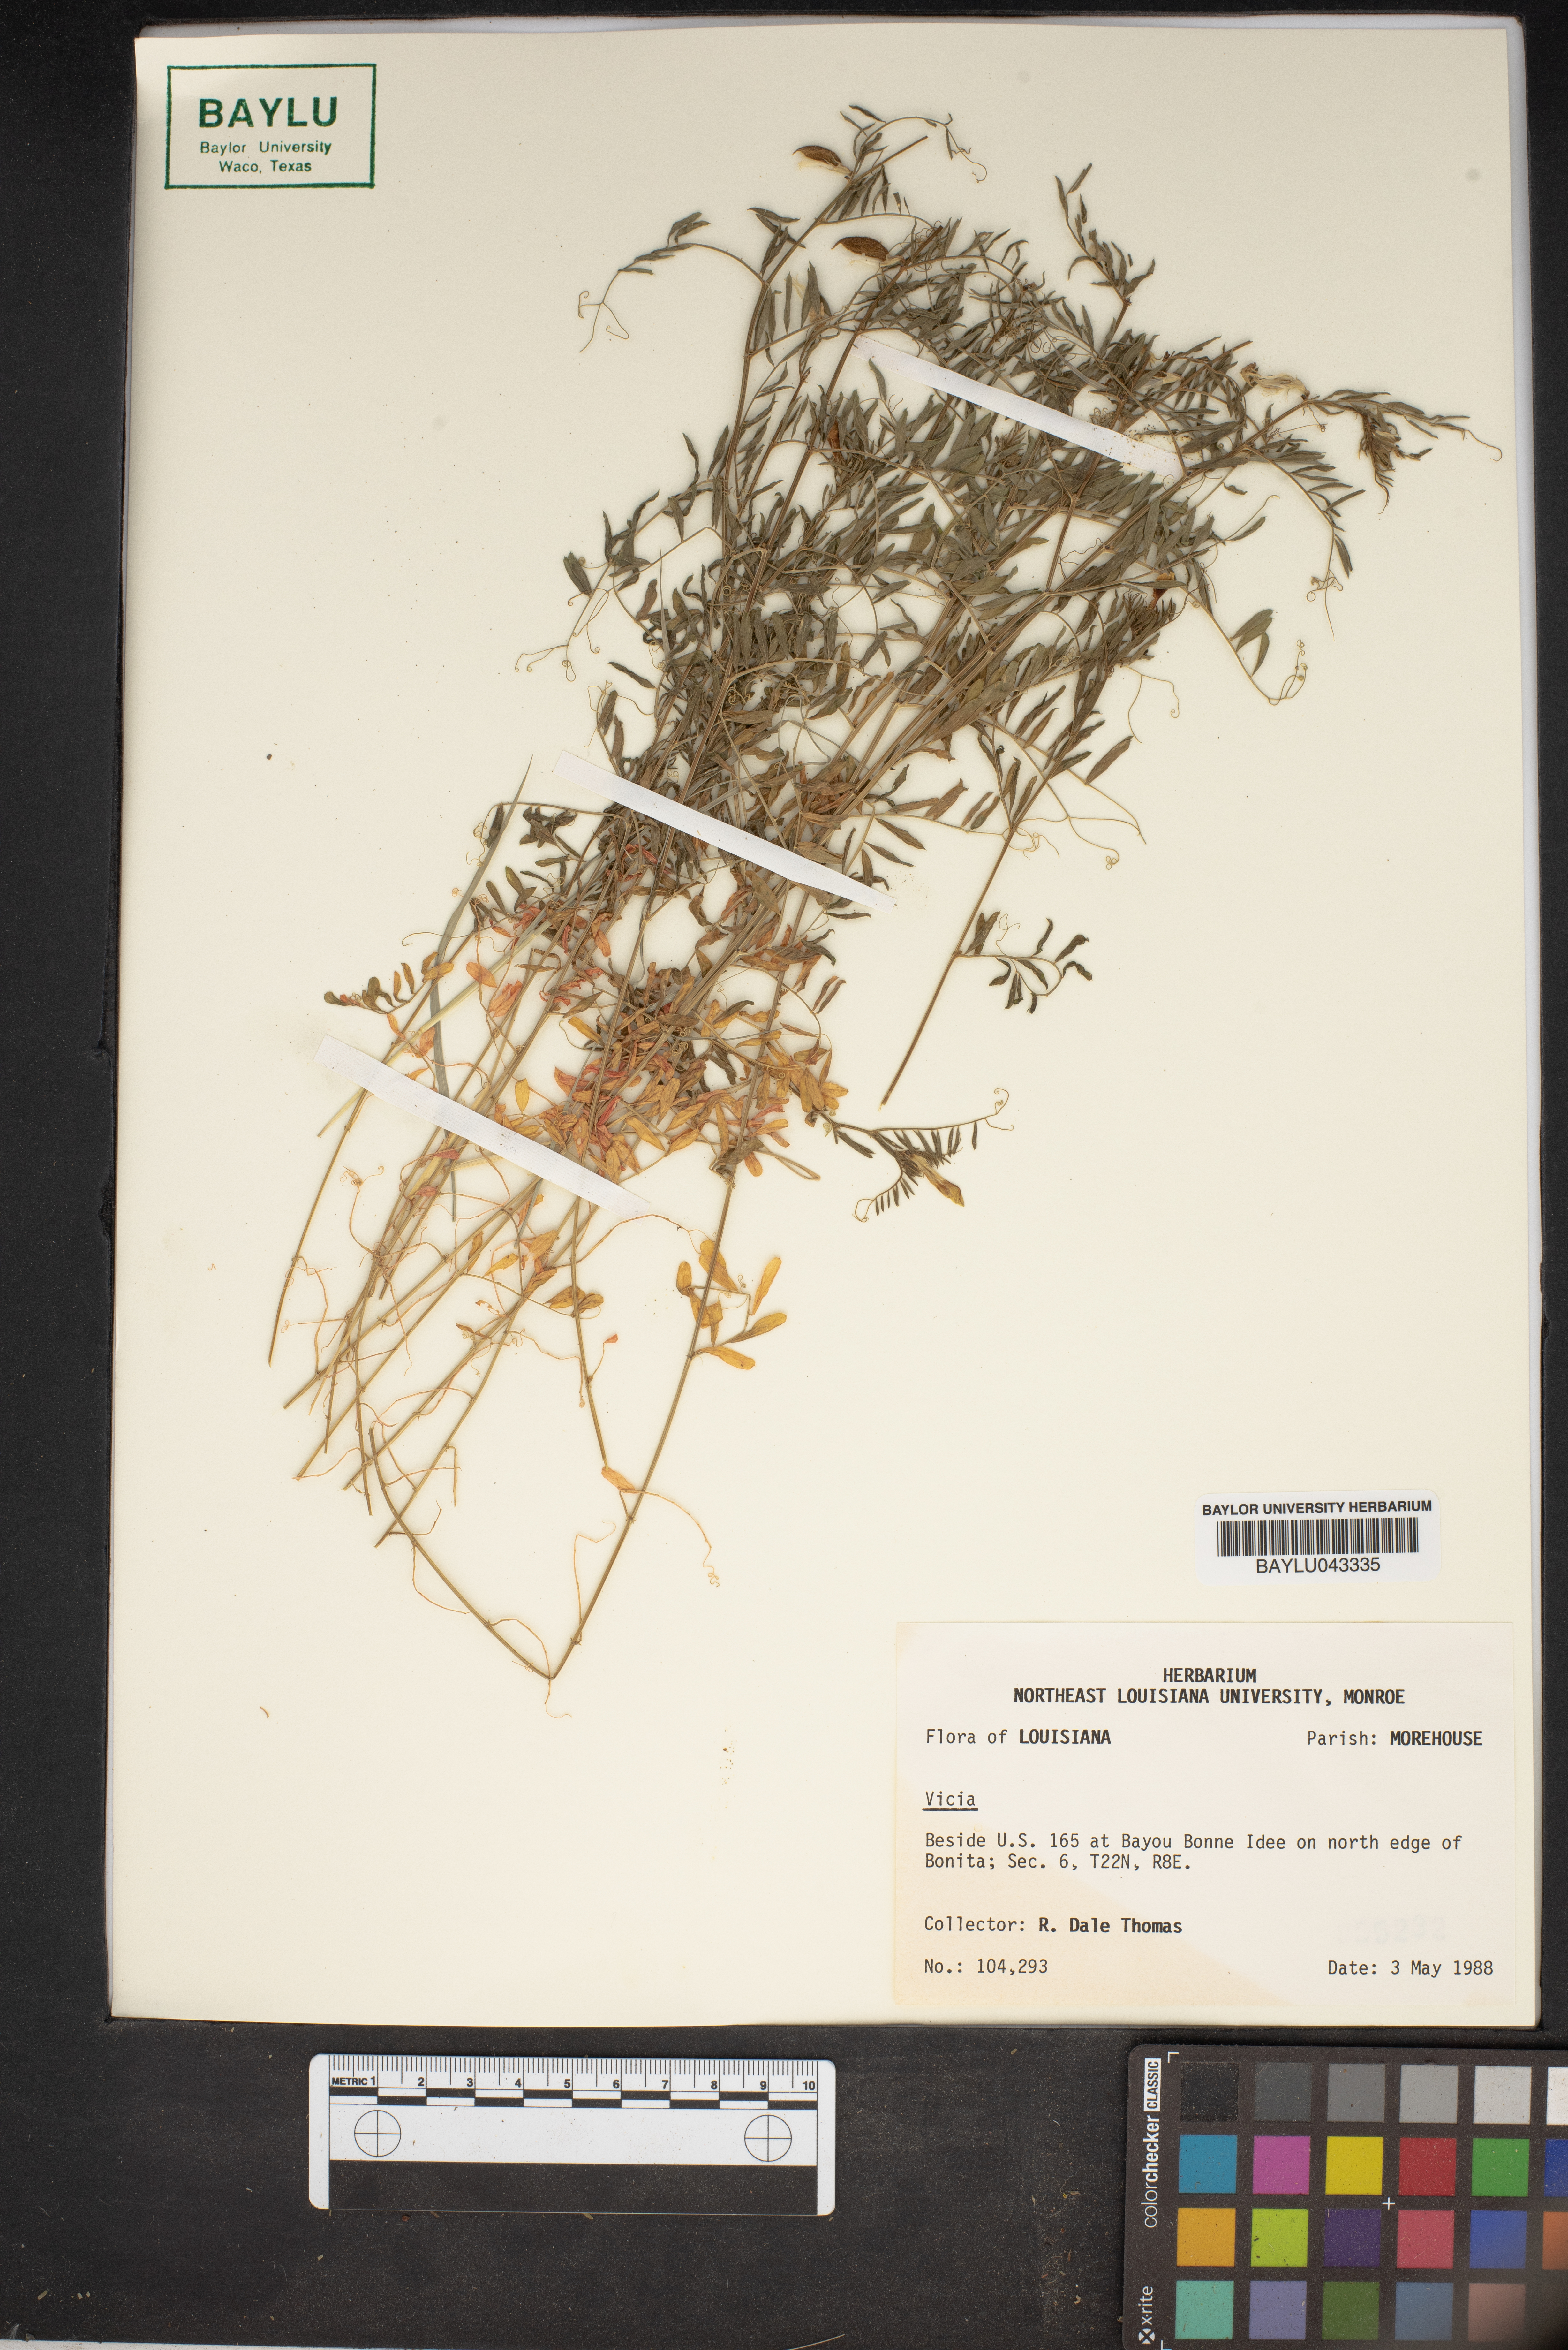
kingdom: Plantae
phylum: Tracheophyta
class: Magnoliopsida
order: Fabales
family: Fabaceae
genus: Vicia
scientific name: Vicia
